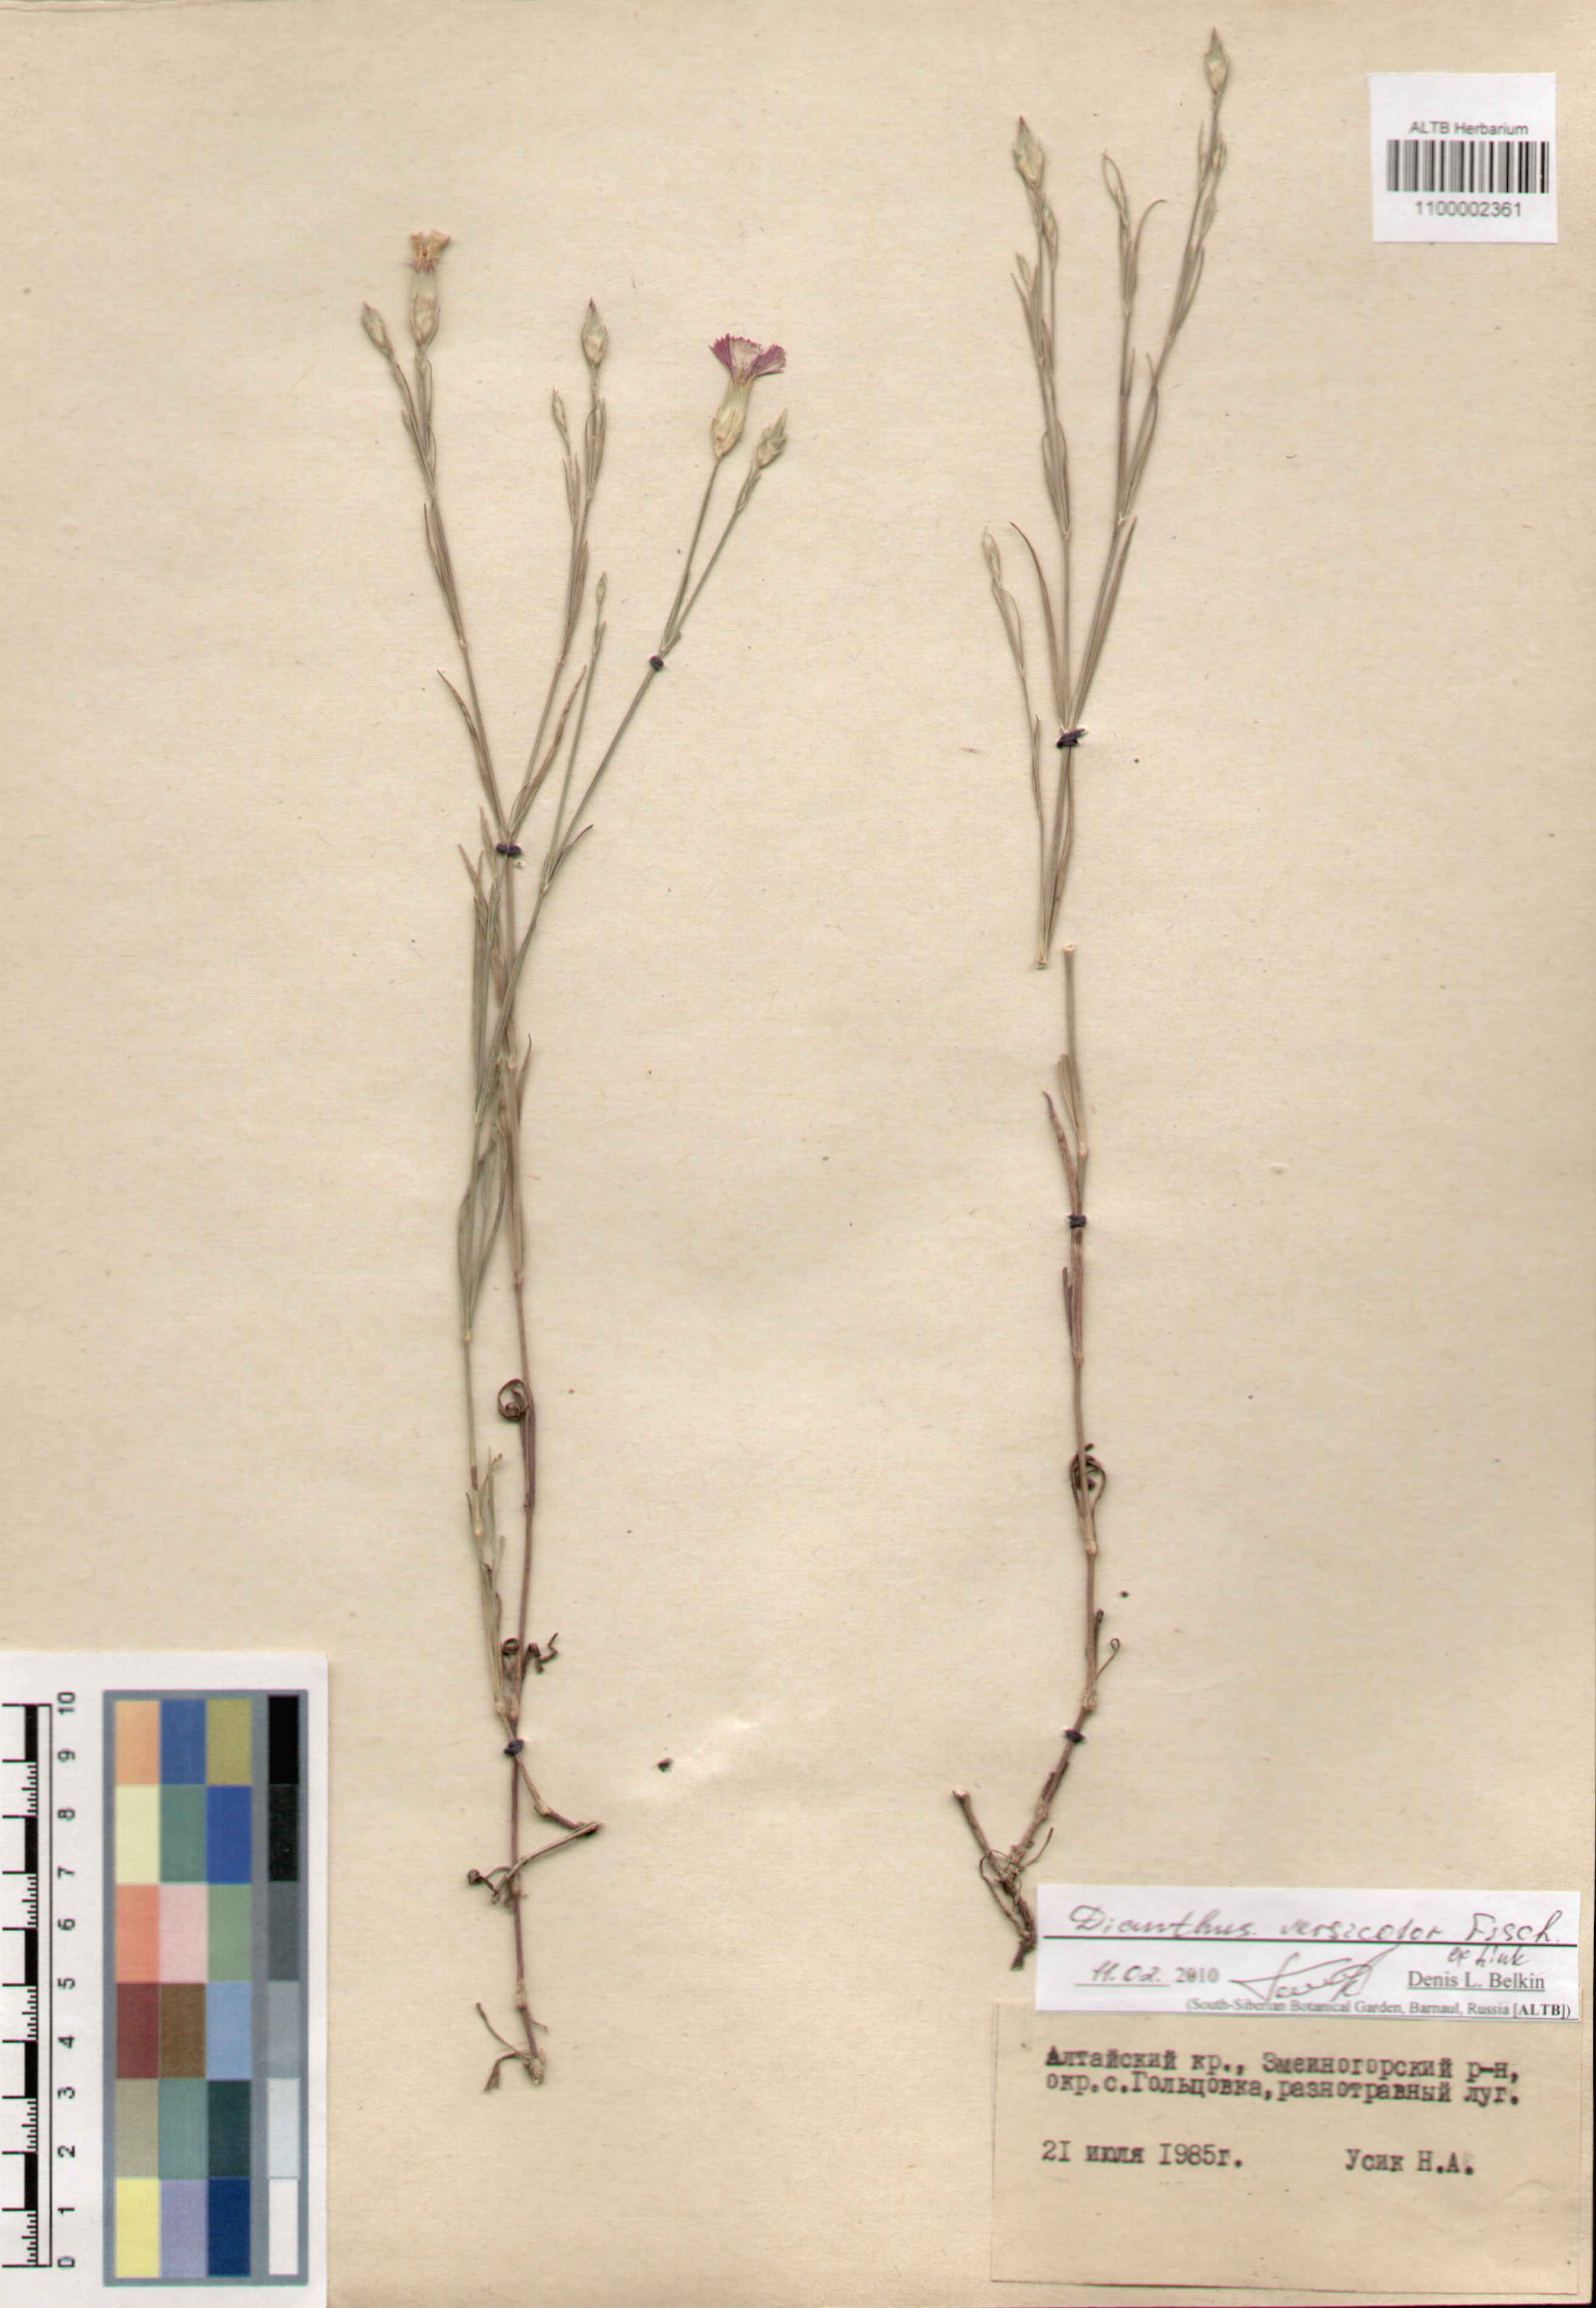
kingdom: Plantae
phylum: Tracheophyta
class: Magnoliopsida
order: Caryophyllales
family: Caryophyllaceae
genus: Dianthus
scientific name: Dianthus chinensis
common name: Rainbow pink
